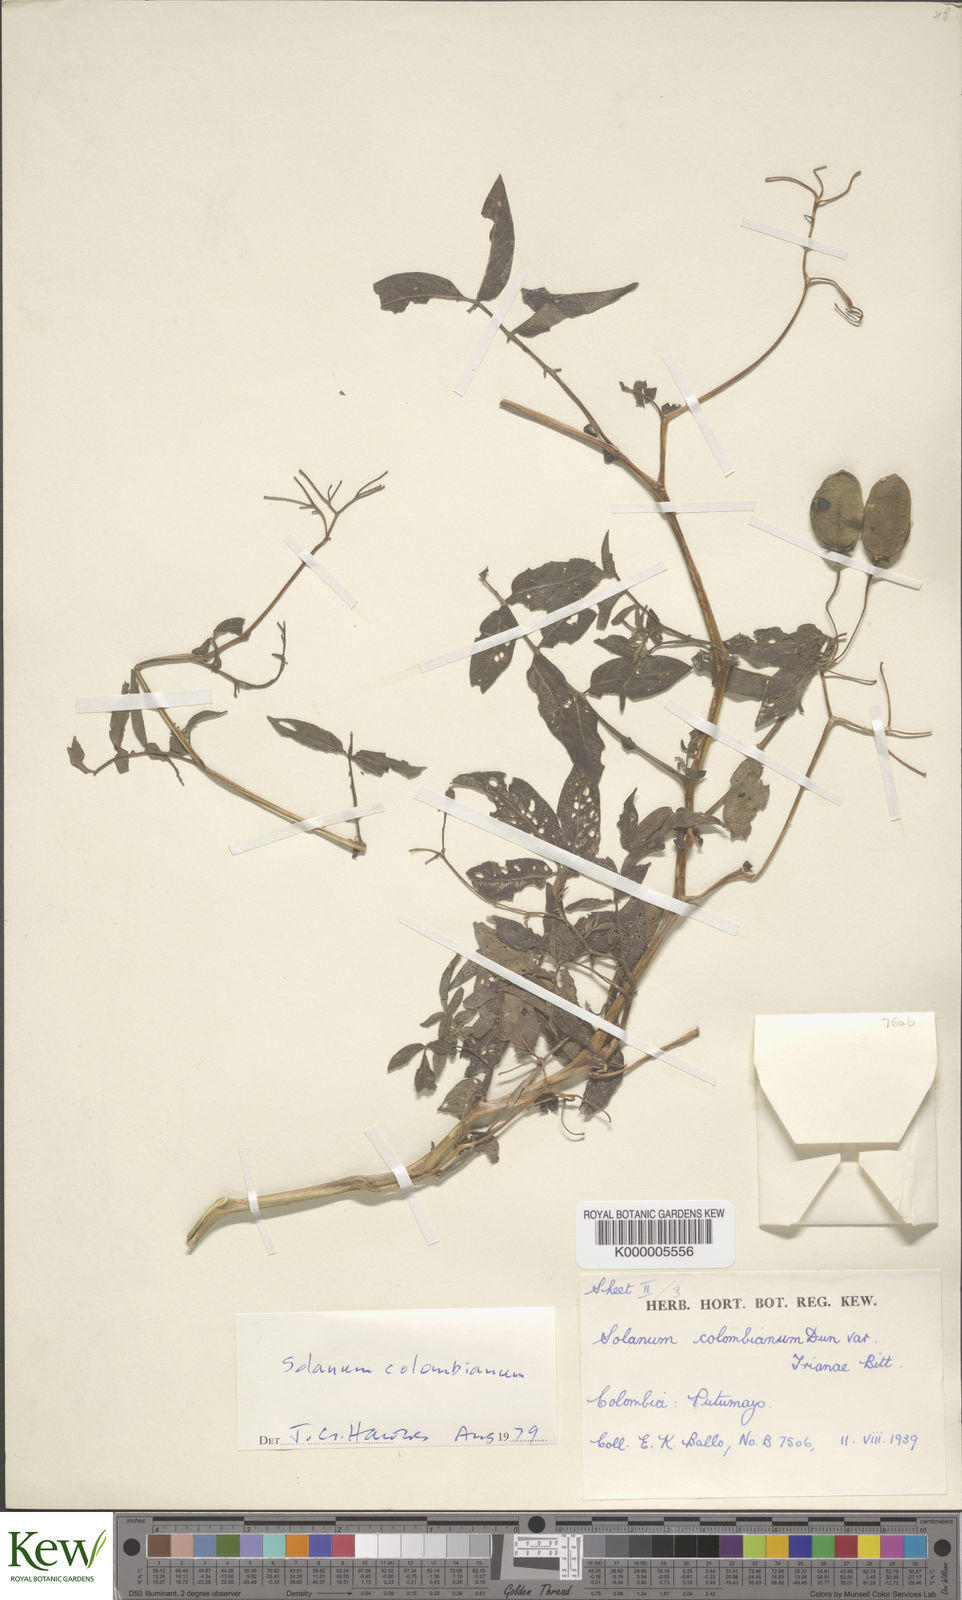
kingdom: Plantae
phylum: Tracheophyta
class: Magnoliopsida
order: Solanales
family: Solanaceae
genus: Solanum
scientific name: Solanum colombianum
